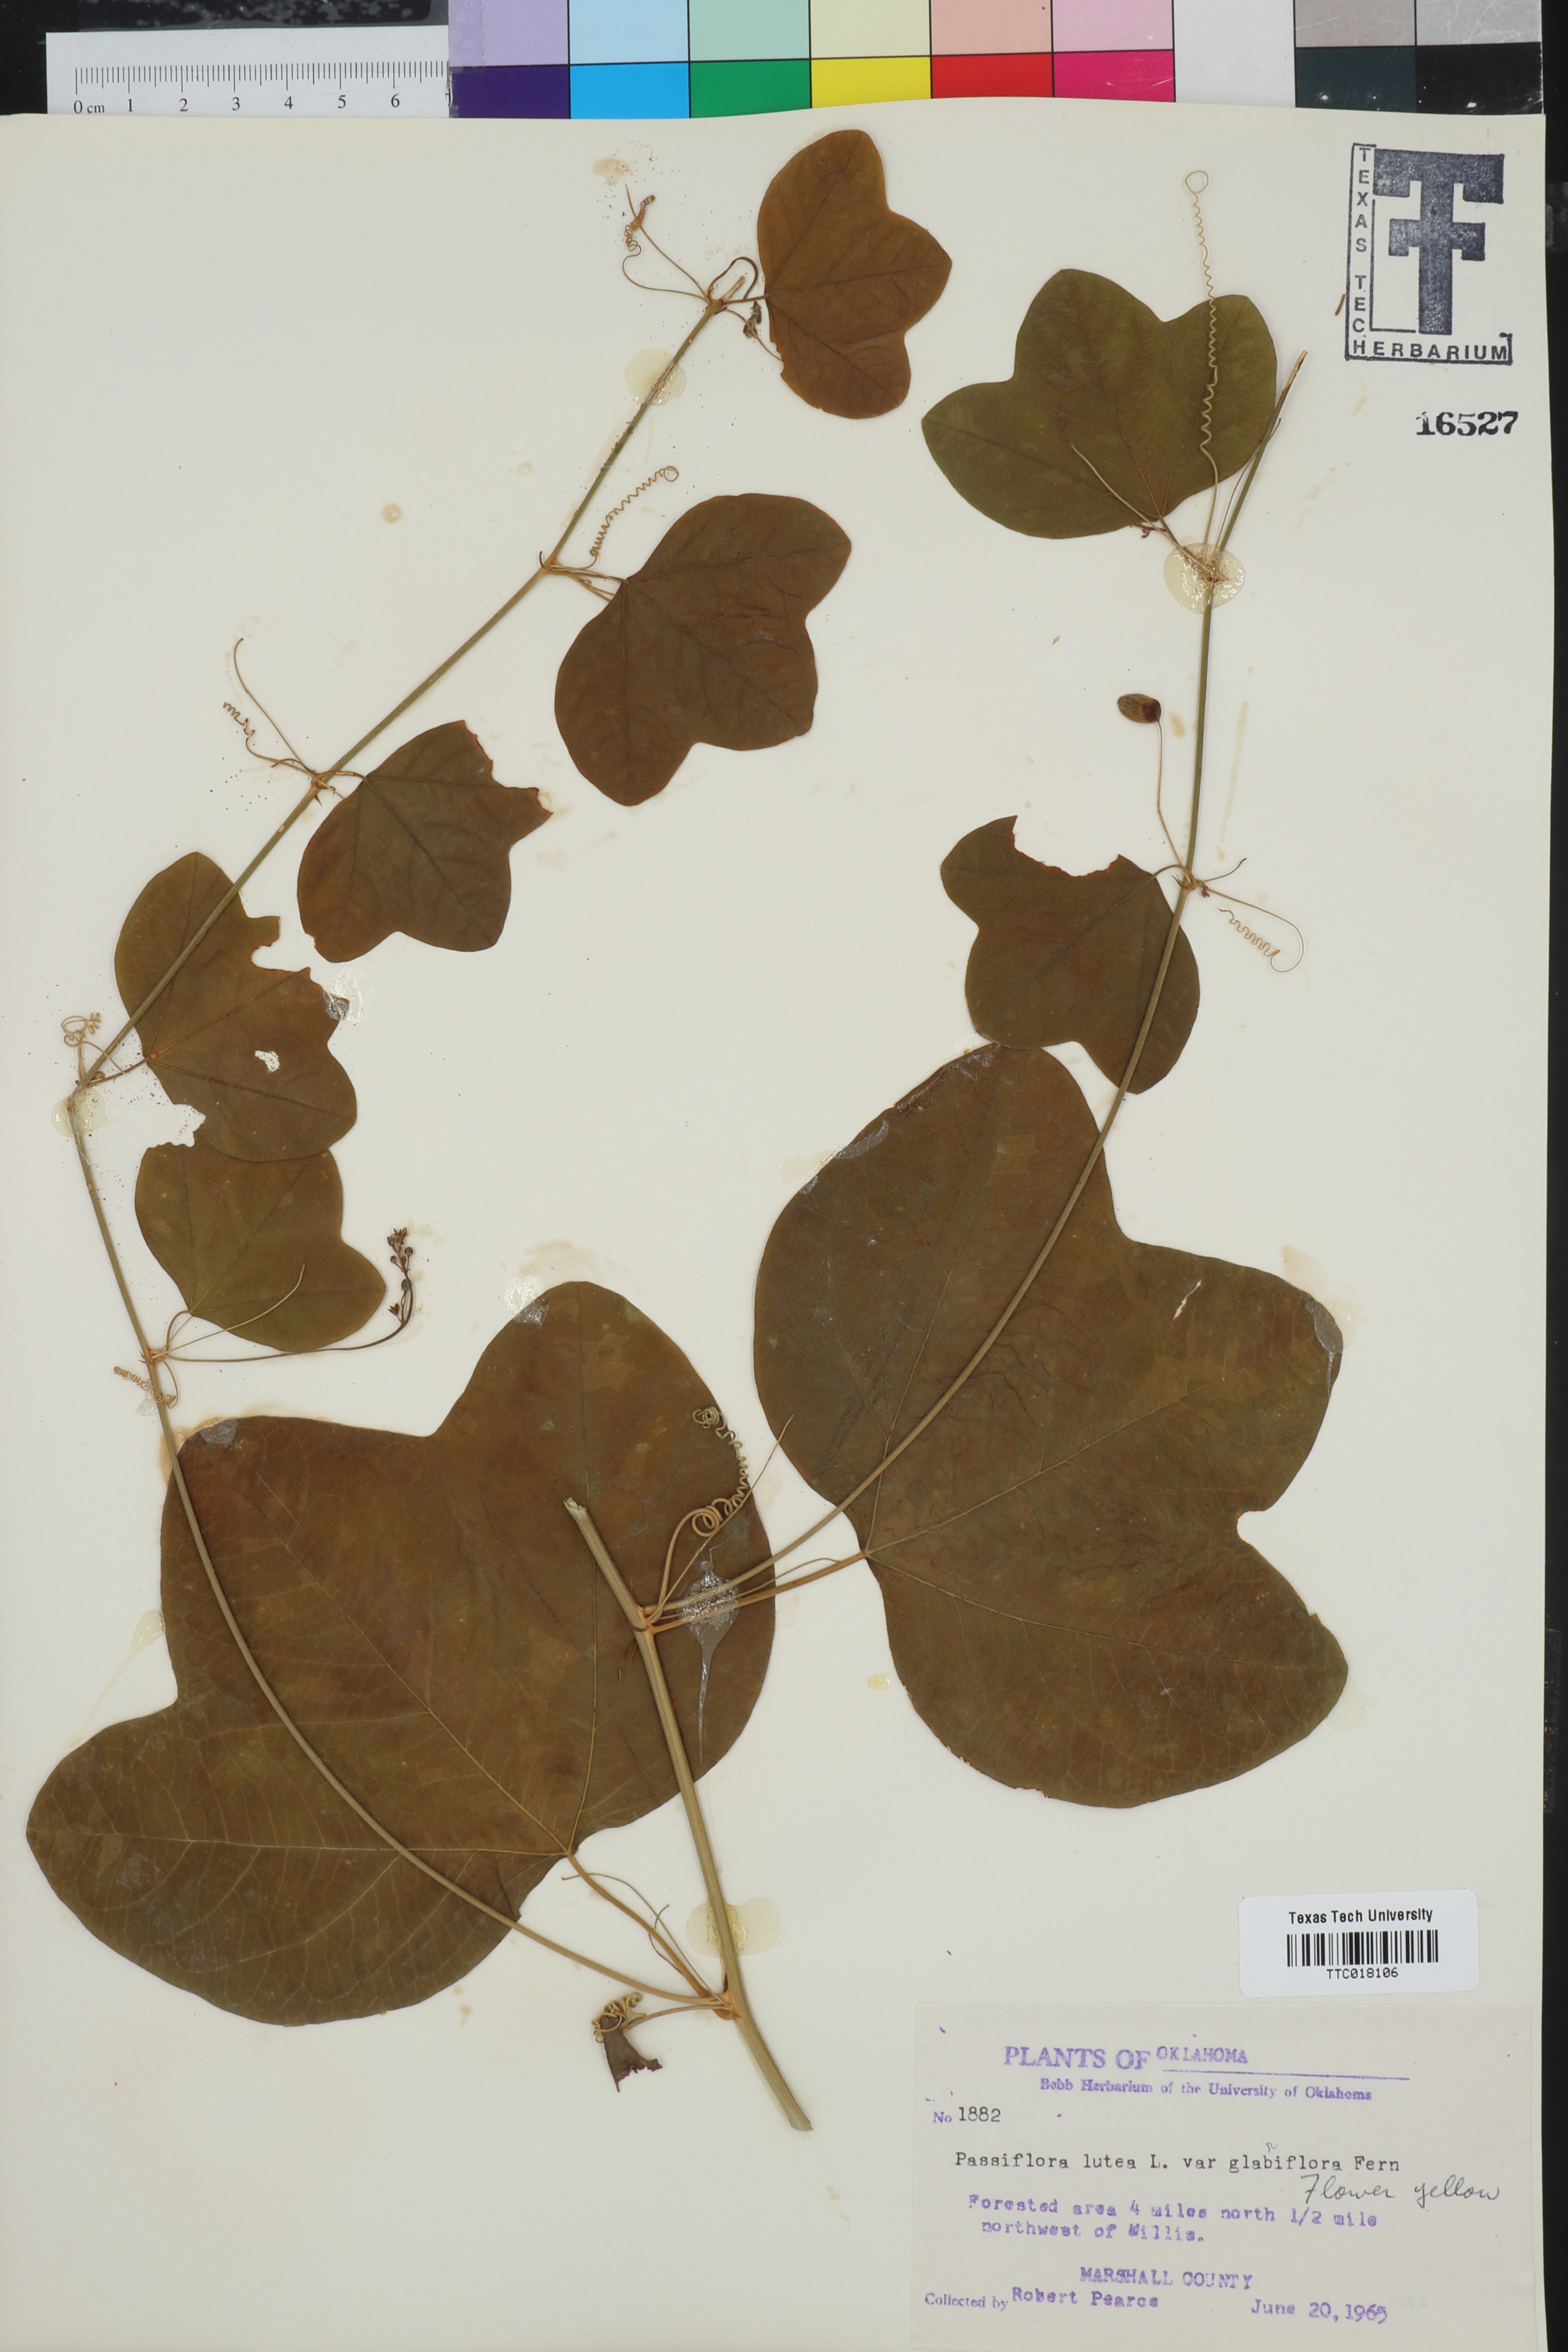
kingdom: Plantae
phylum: Tracheophyta
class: Magnoliopsida
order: Malpighiales
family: Passifloraceae
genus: Passiflora
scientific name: Passiflora lutea
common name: Yellow passionflower
